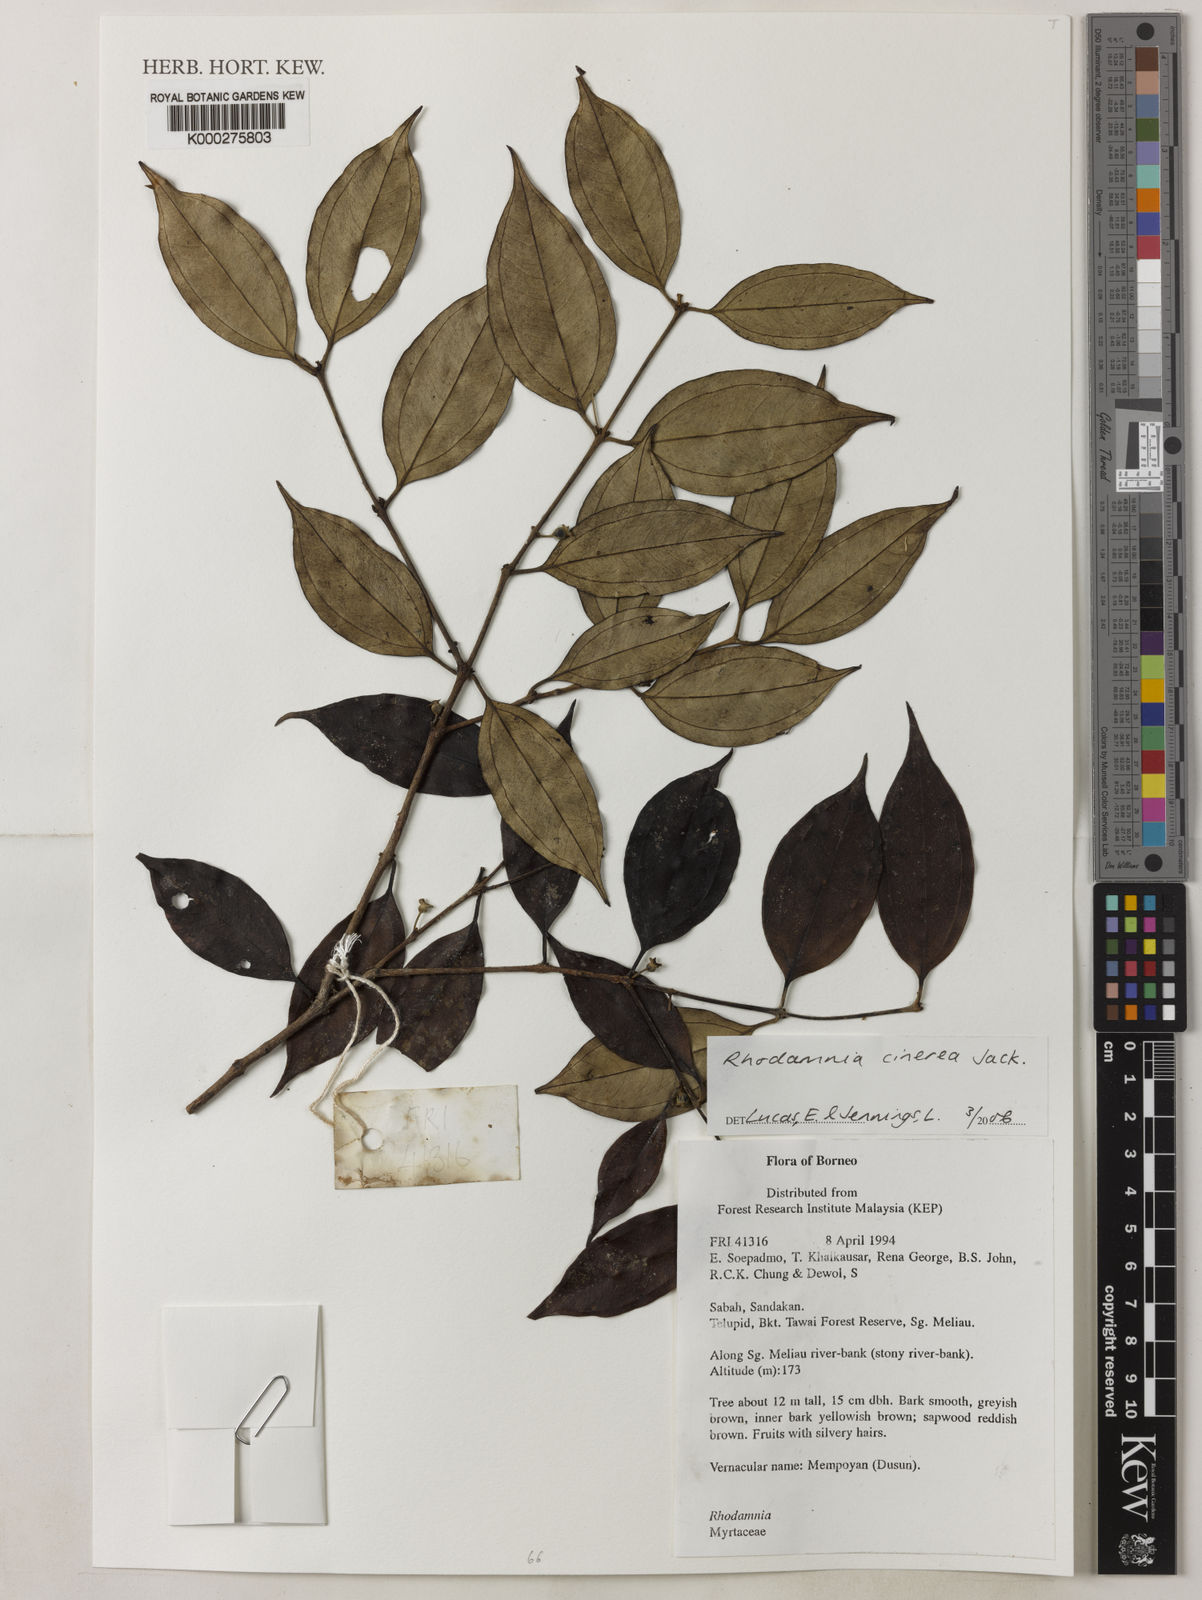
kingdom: Plantae
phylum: Tracheophyta
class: Magnoliopsida
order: Myrtales
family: Myrtaceae
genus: Rhodamnia
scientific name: Rhodamnia cinerea
